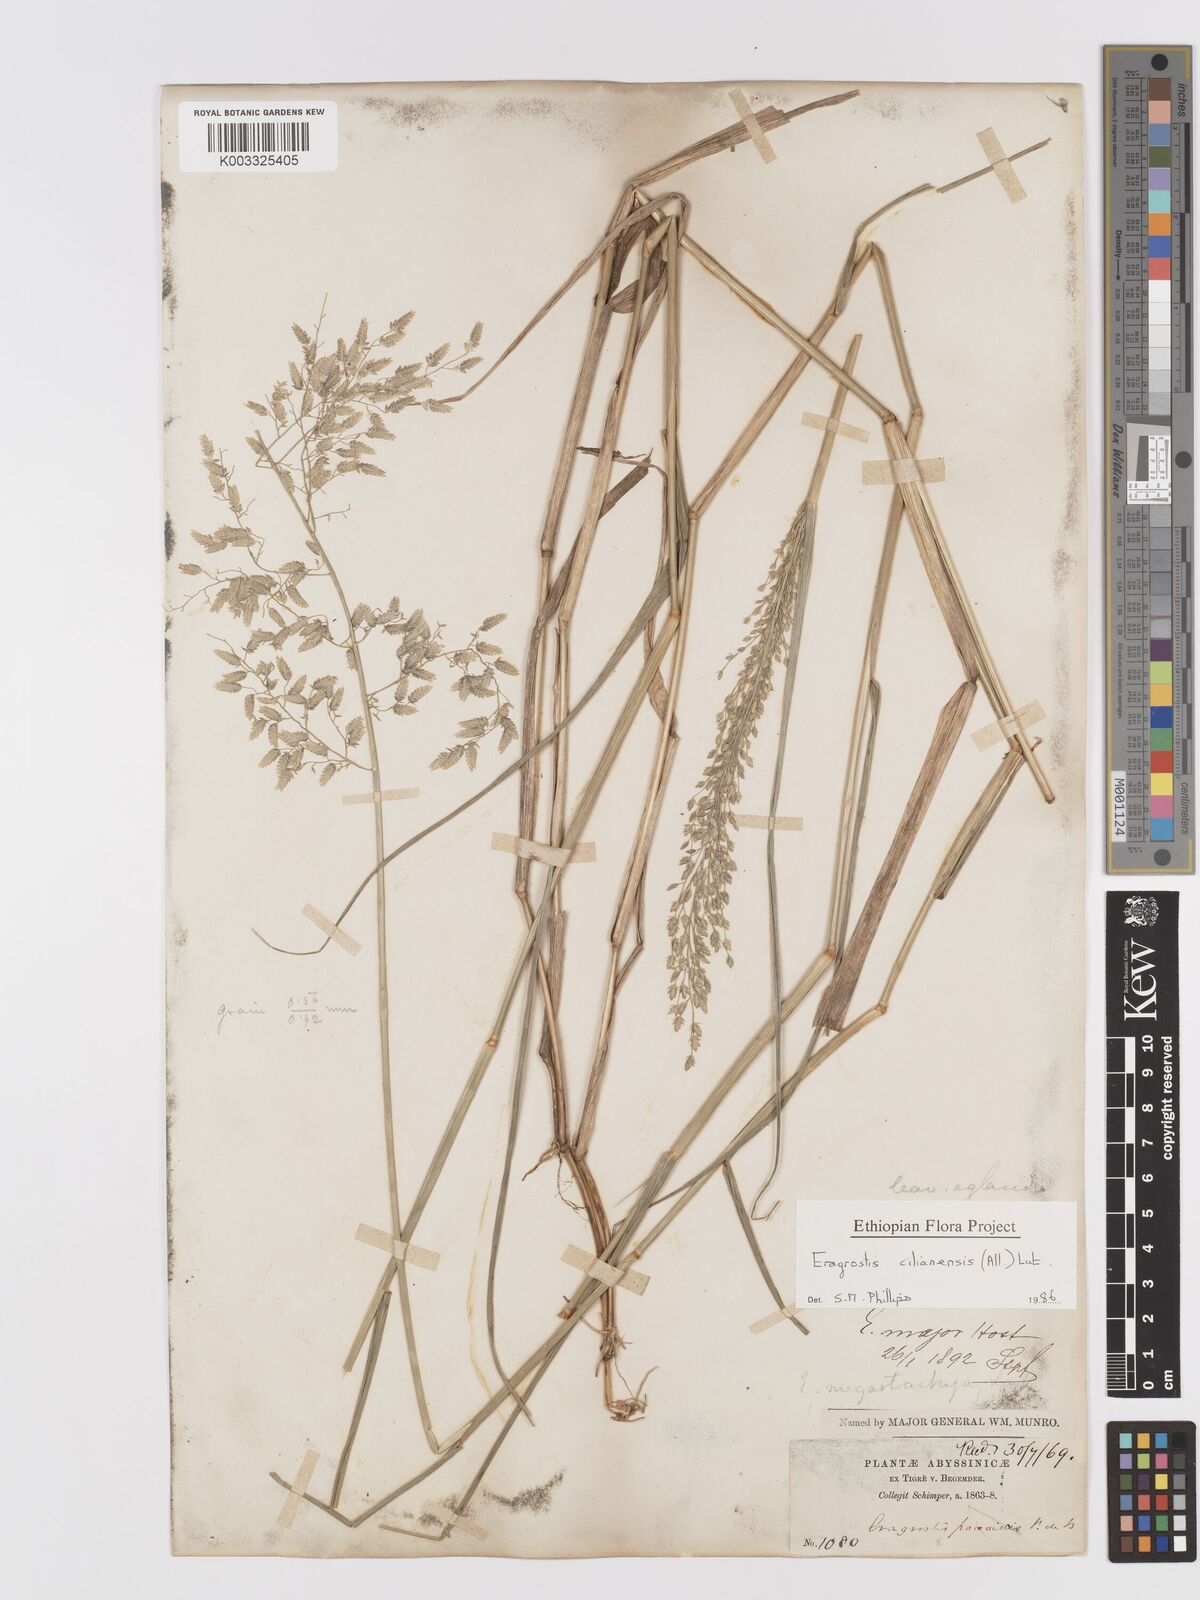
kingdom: Plantae
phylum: Tracheophyta
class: Liliopsida
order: Poales
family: Poaceae
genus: Eragrostis
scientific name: Eragrostis cilianensis
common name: Stinkgrass
